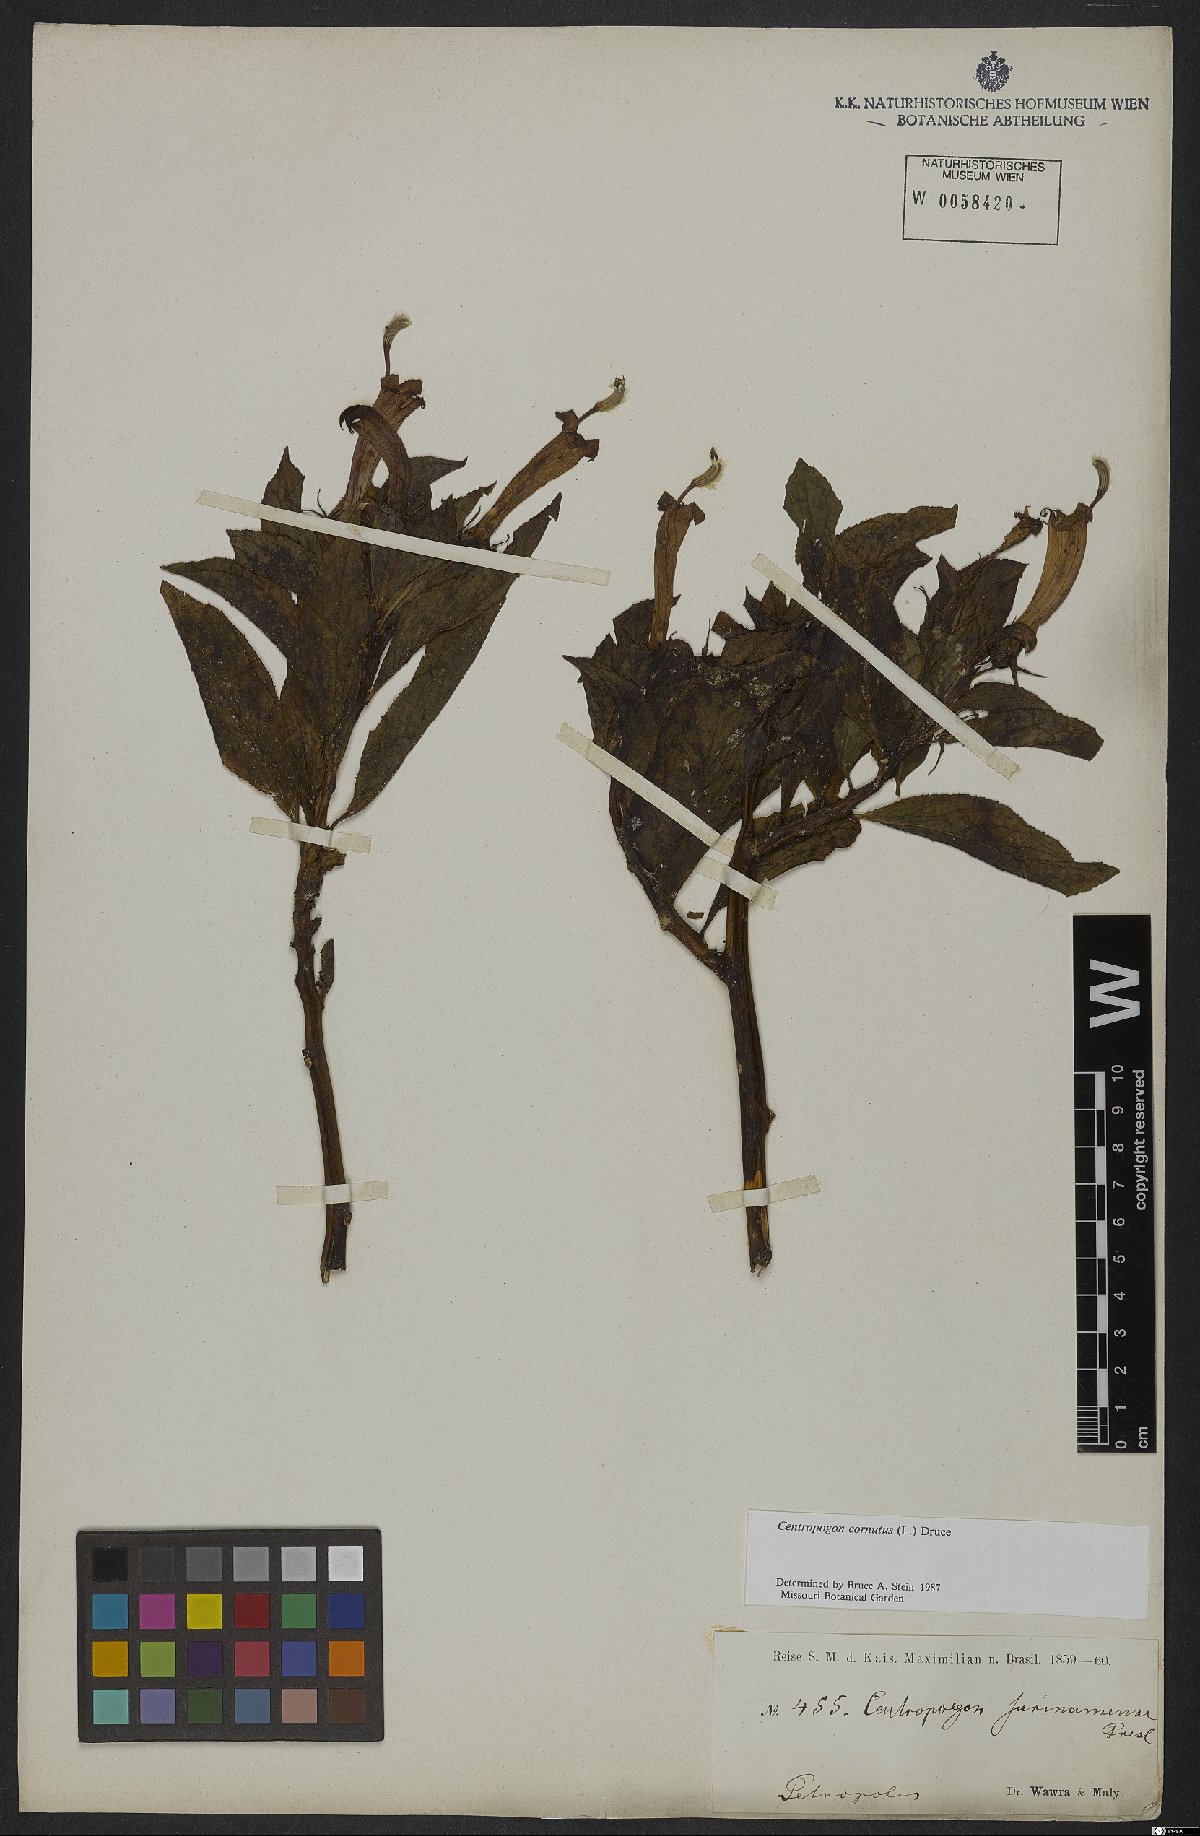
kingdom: Plantae
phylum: Tracheophyta
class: Magnoliopsida
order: Asterales
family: Campanulaceae
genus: Centropogon
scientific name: Centropogon cornutus
